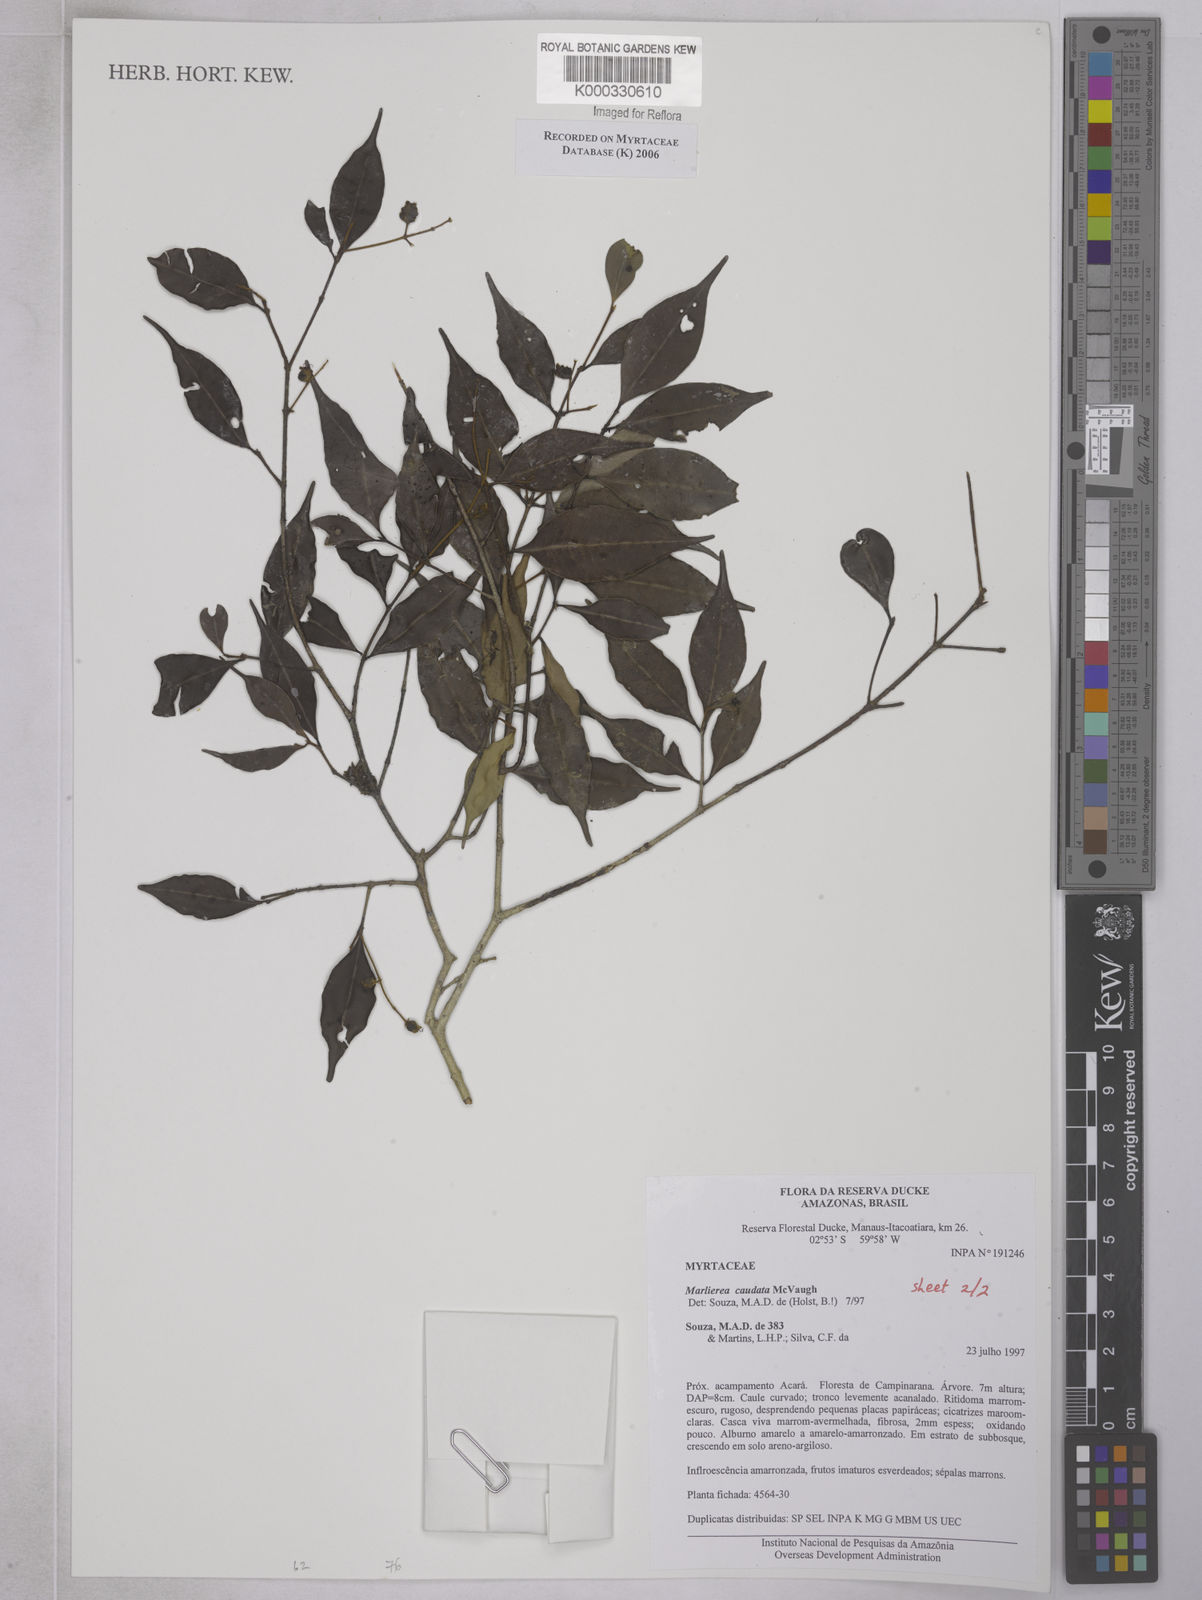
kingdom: Plantae
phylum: Tracheophyta
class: Magnoliopsida
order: Myrtales
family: Myrtaceae
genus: Myrcia
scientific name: Myrcia caudata
